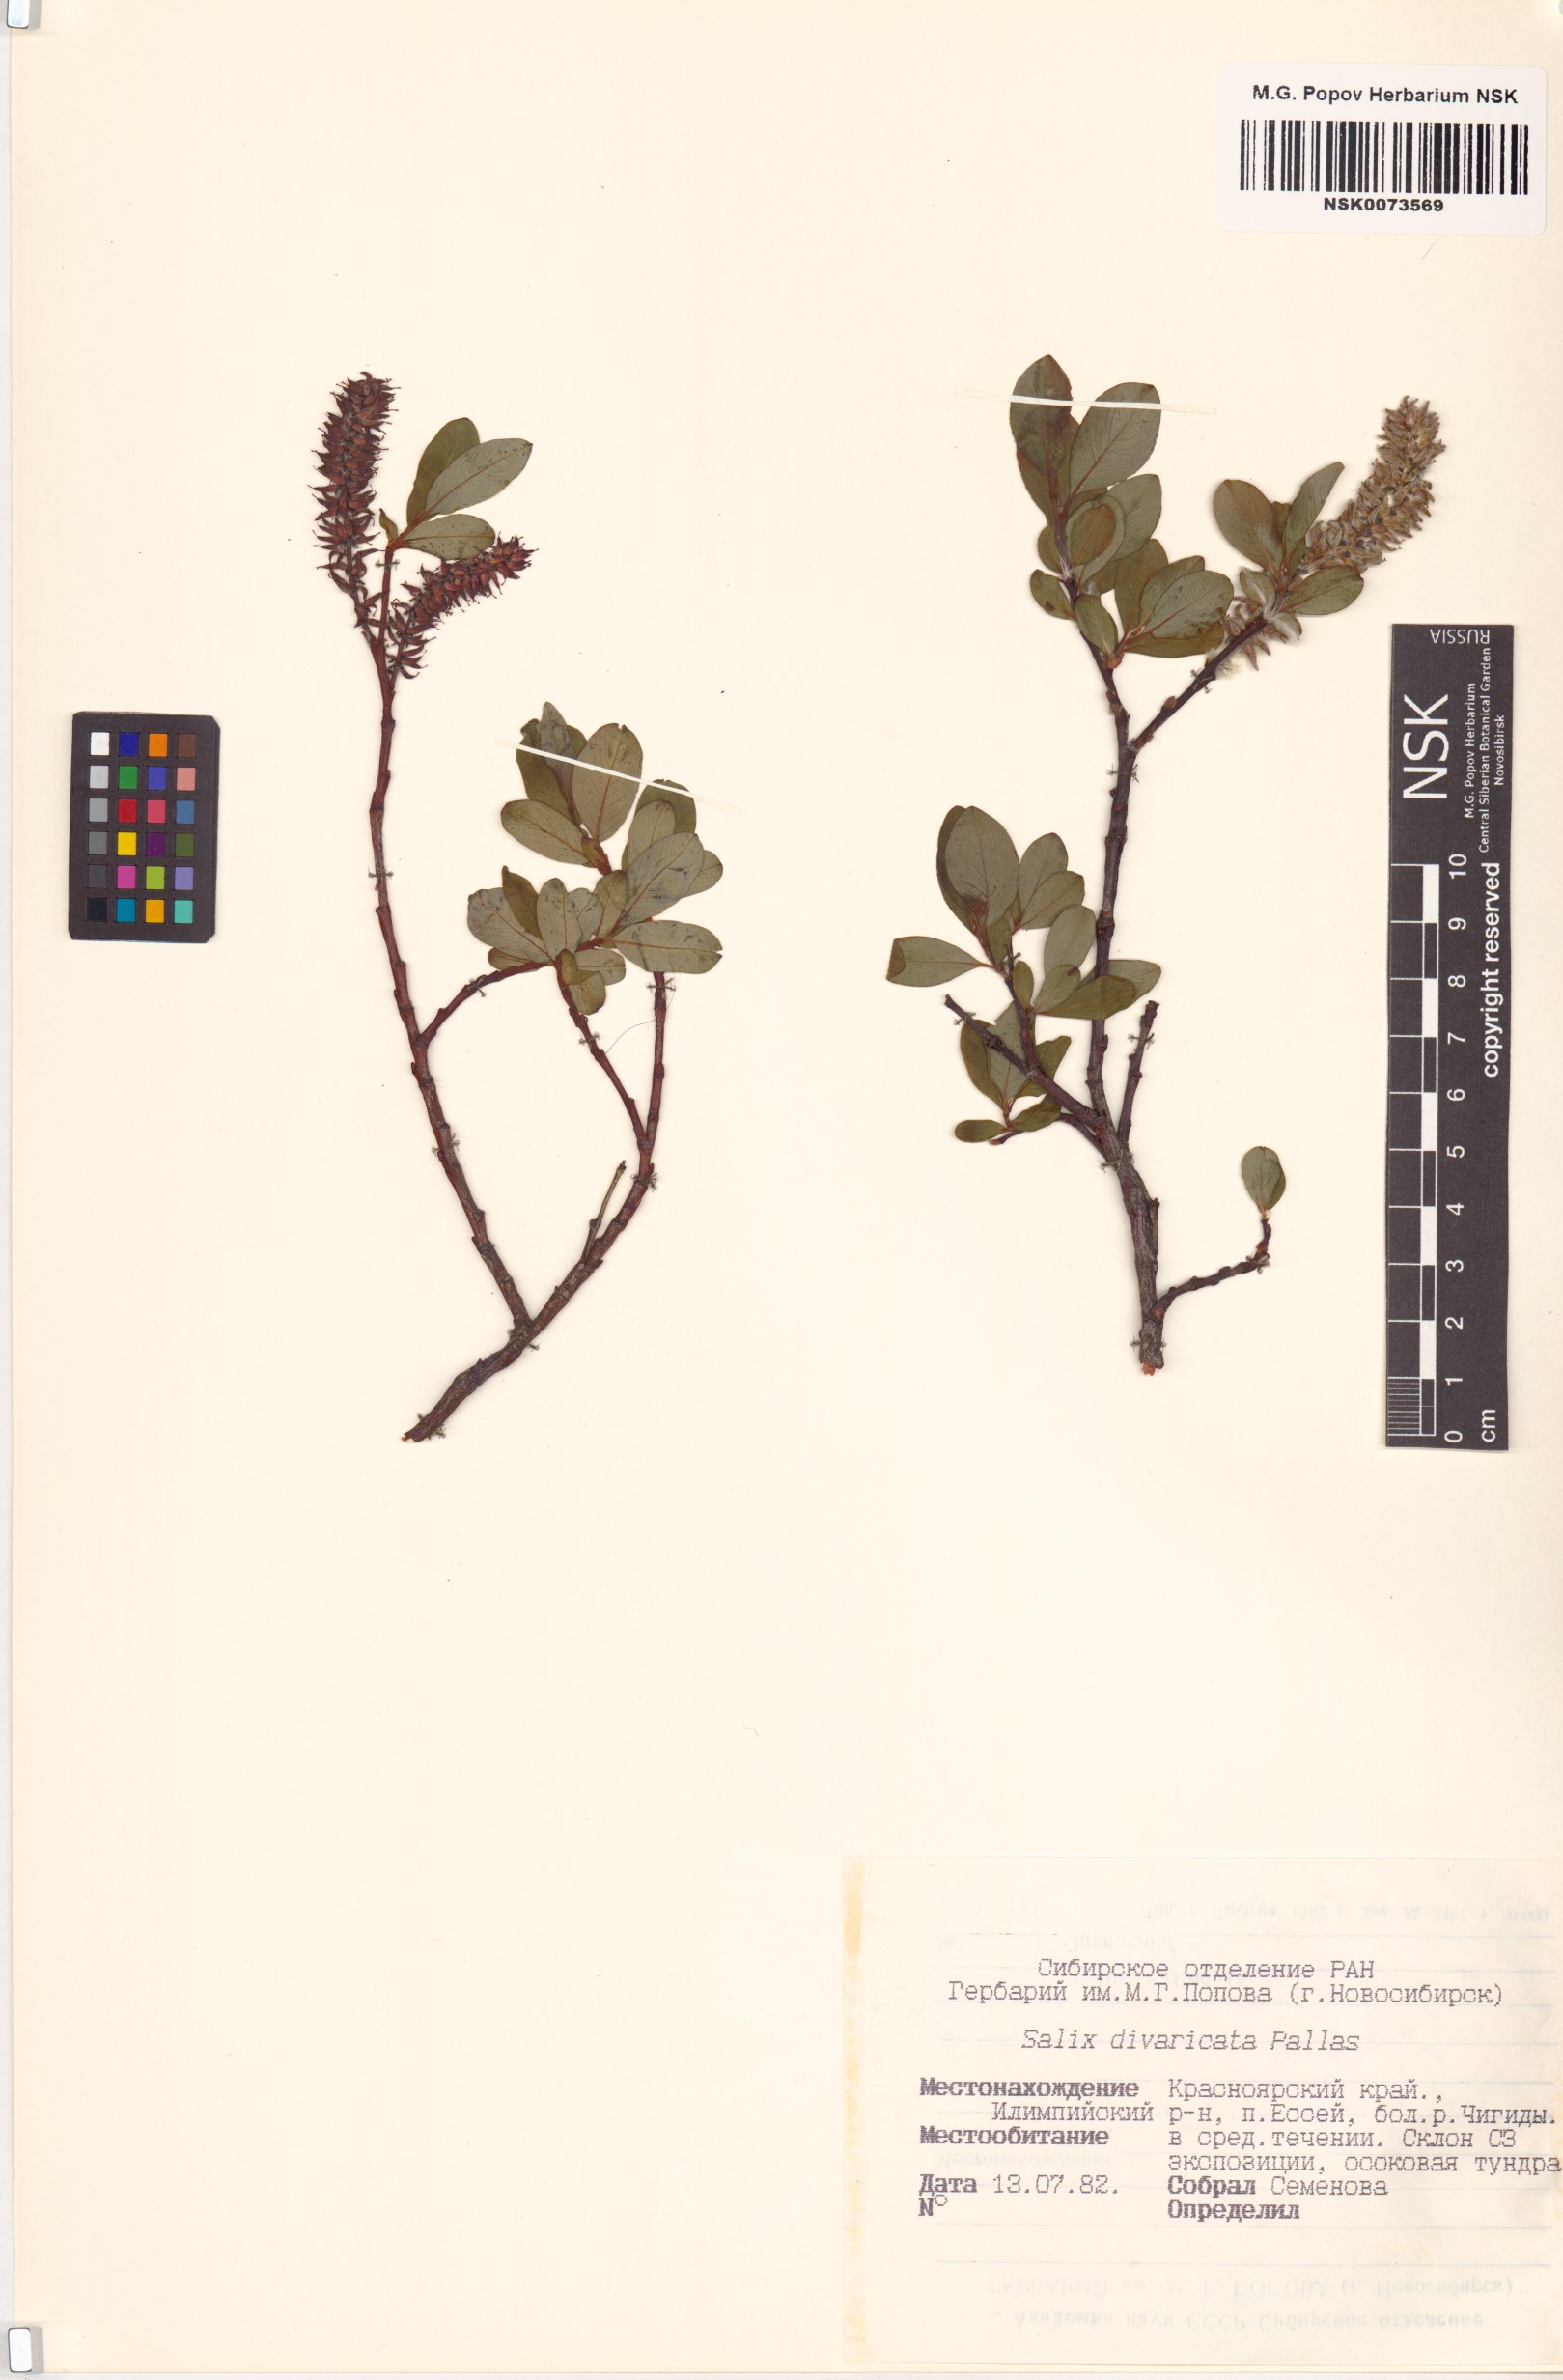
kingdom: Plantae
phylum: Tracheophyta
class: Magnoliopsida
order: Malpighiales
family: Salicaceae
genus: Salix
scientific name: Salix divaricata
